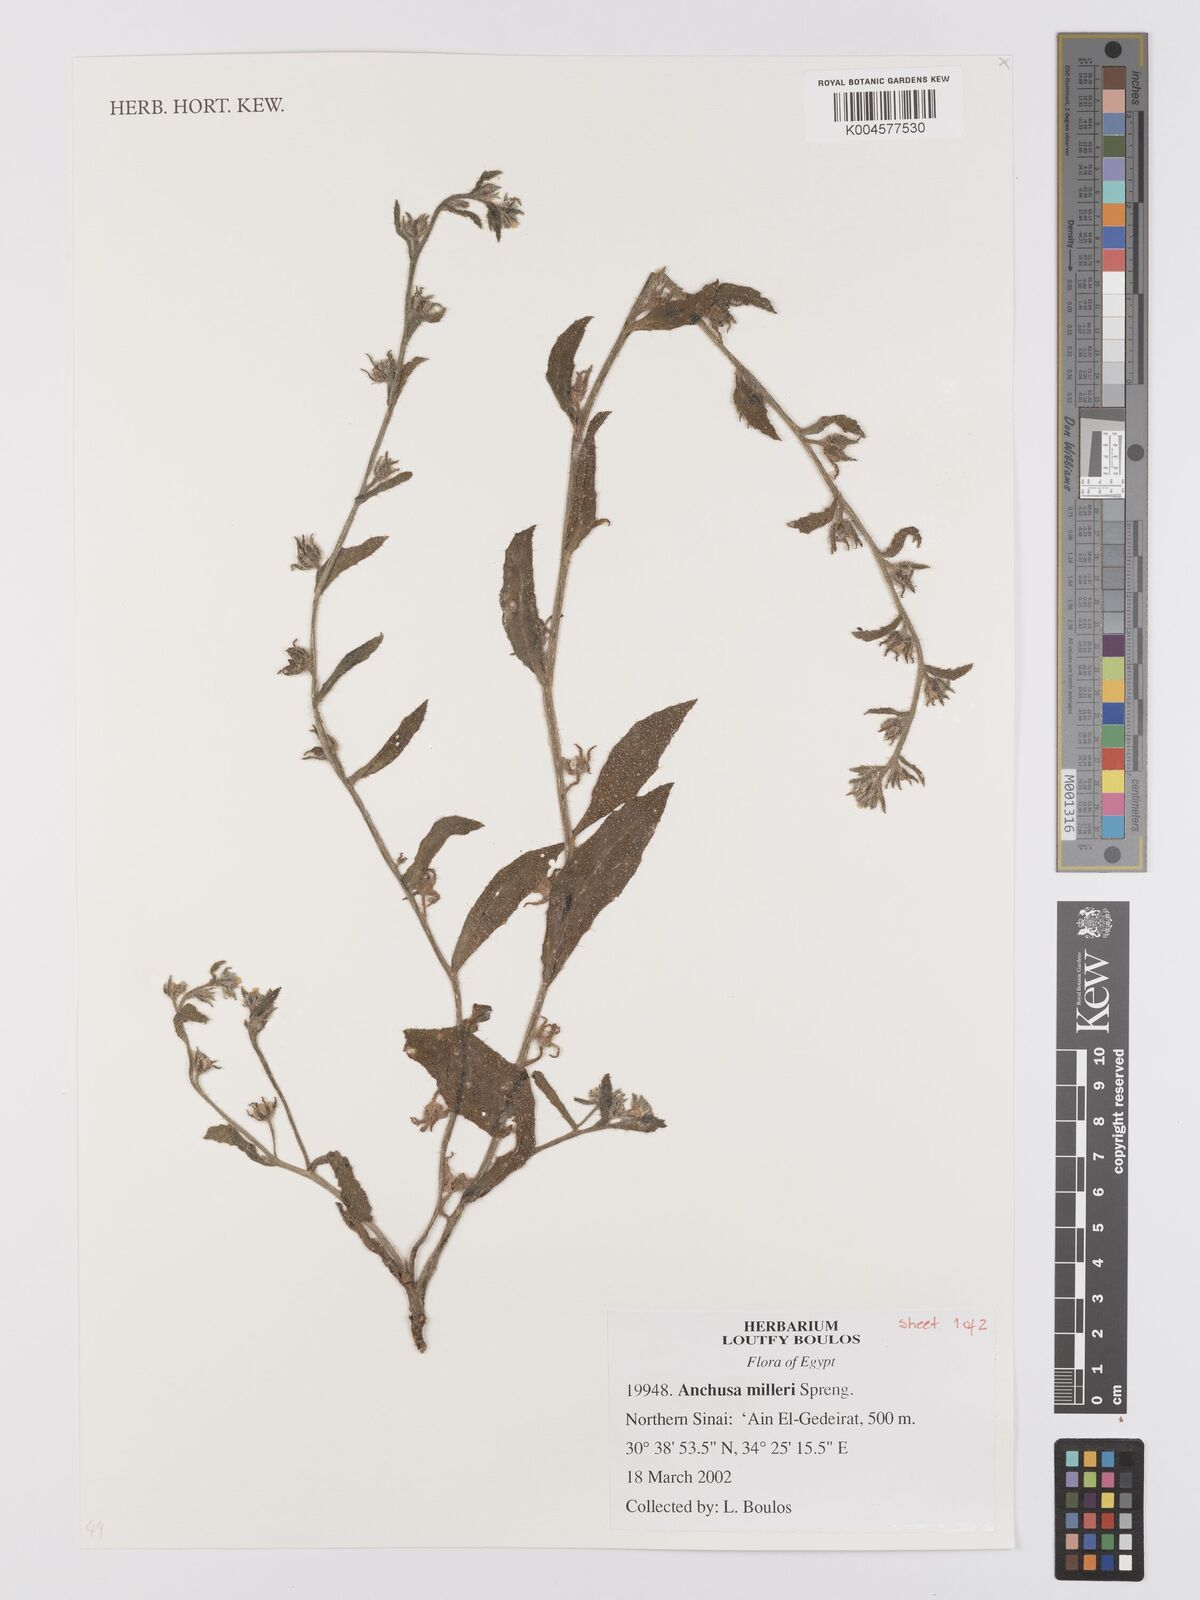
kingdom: Plantae
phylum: Tracheophyta
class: Magnoliopsida
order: Boraginales
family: Boraginaceae
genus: Anchusa
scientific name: Anchusa milleri
